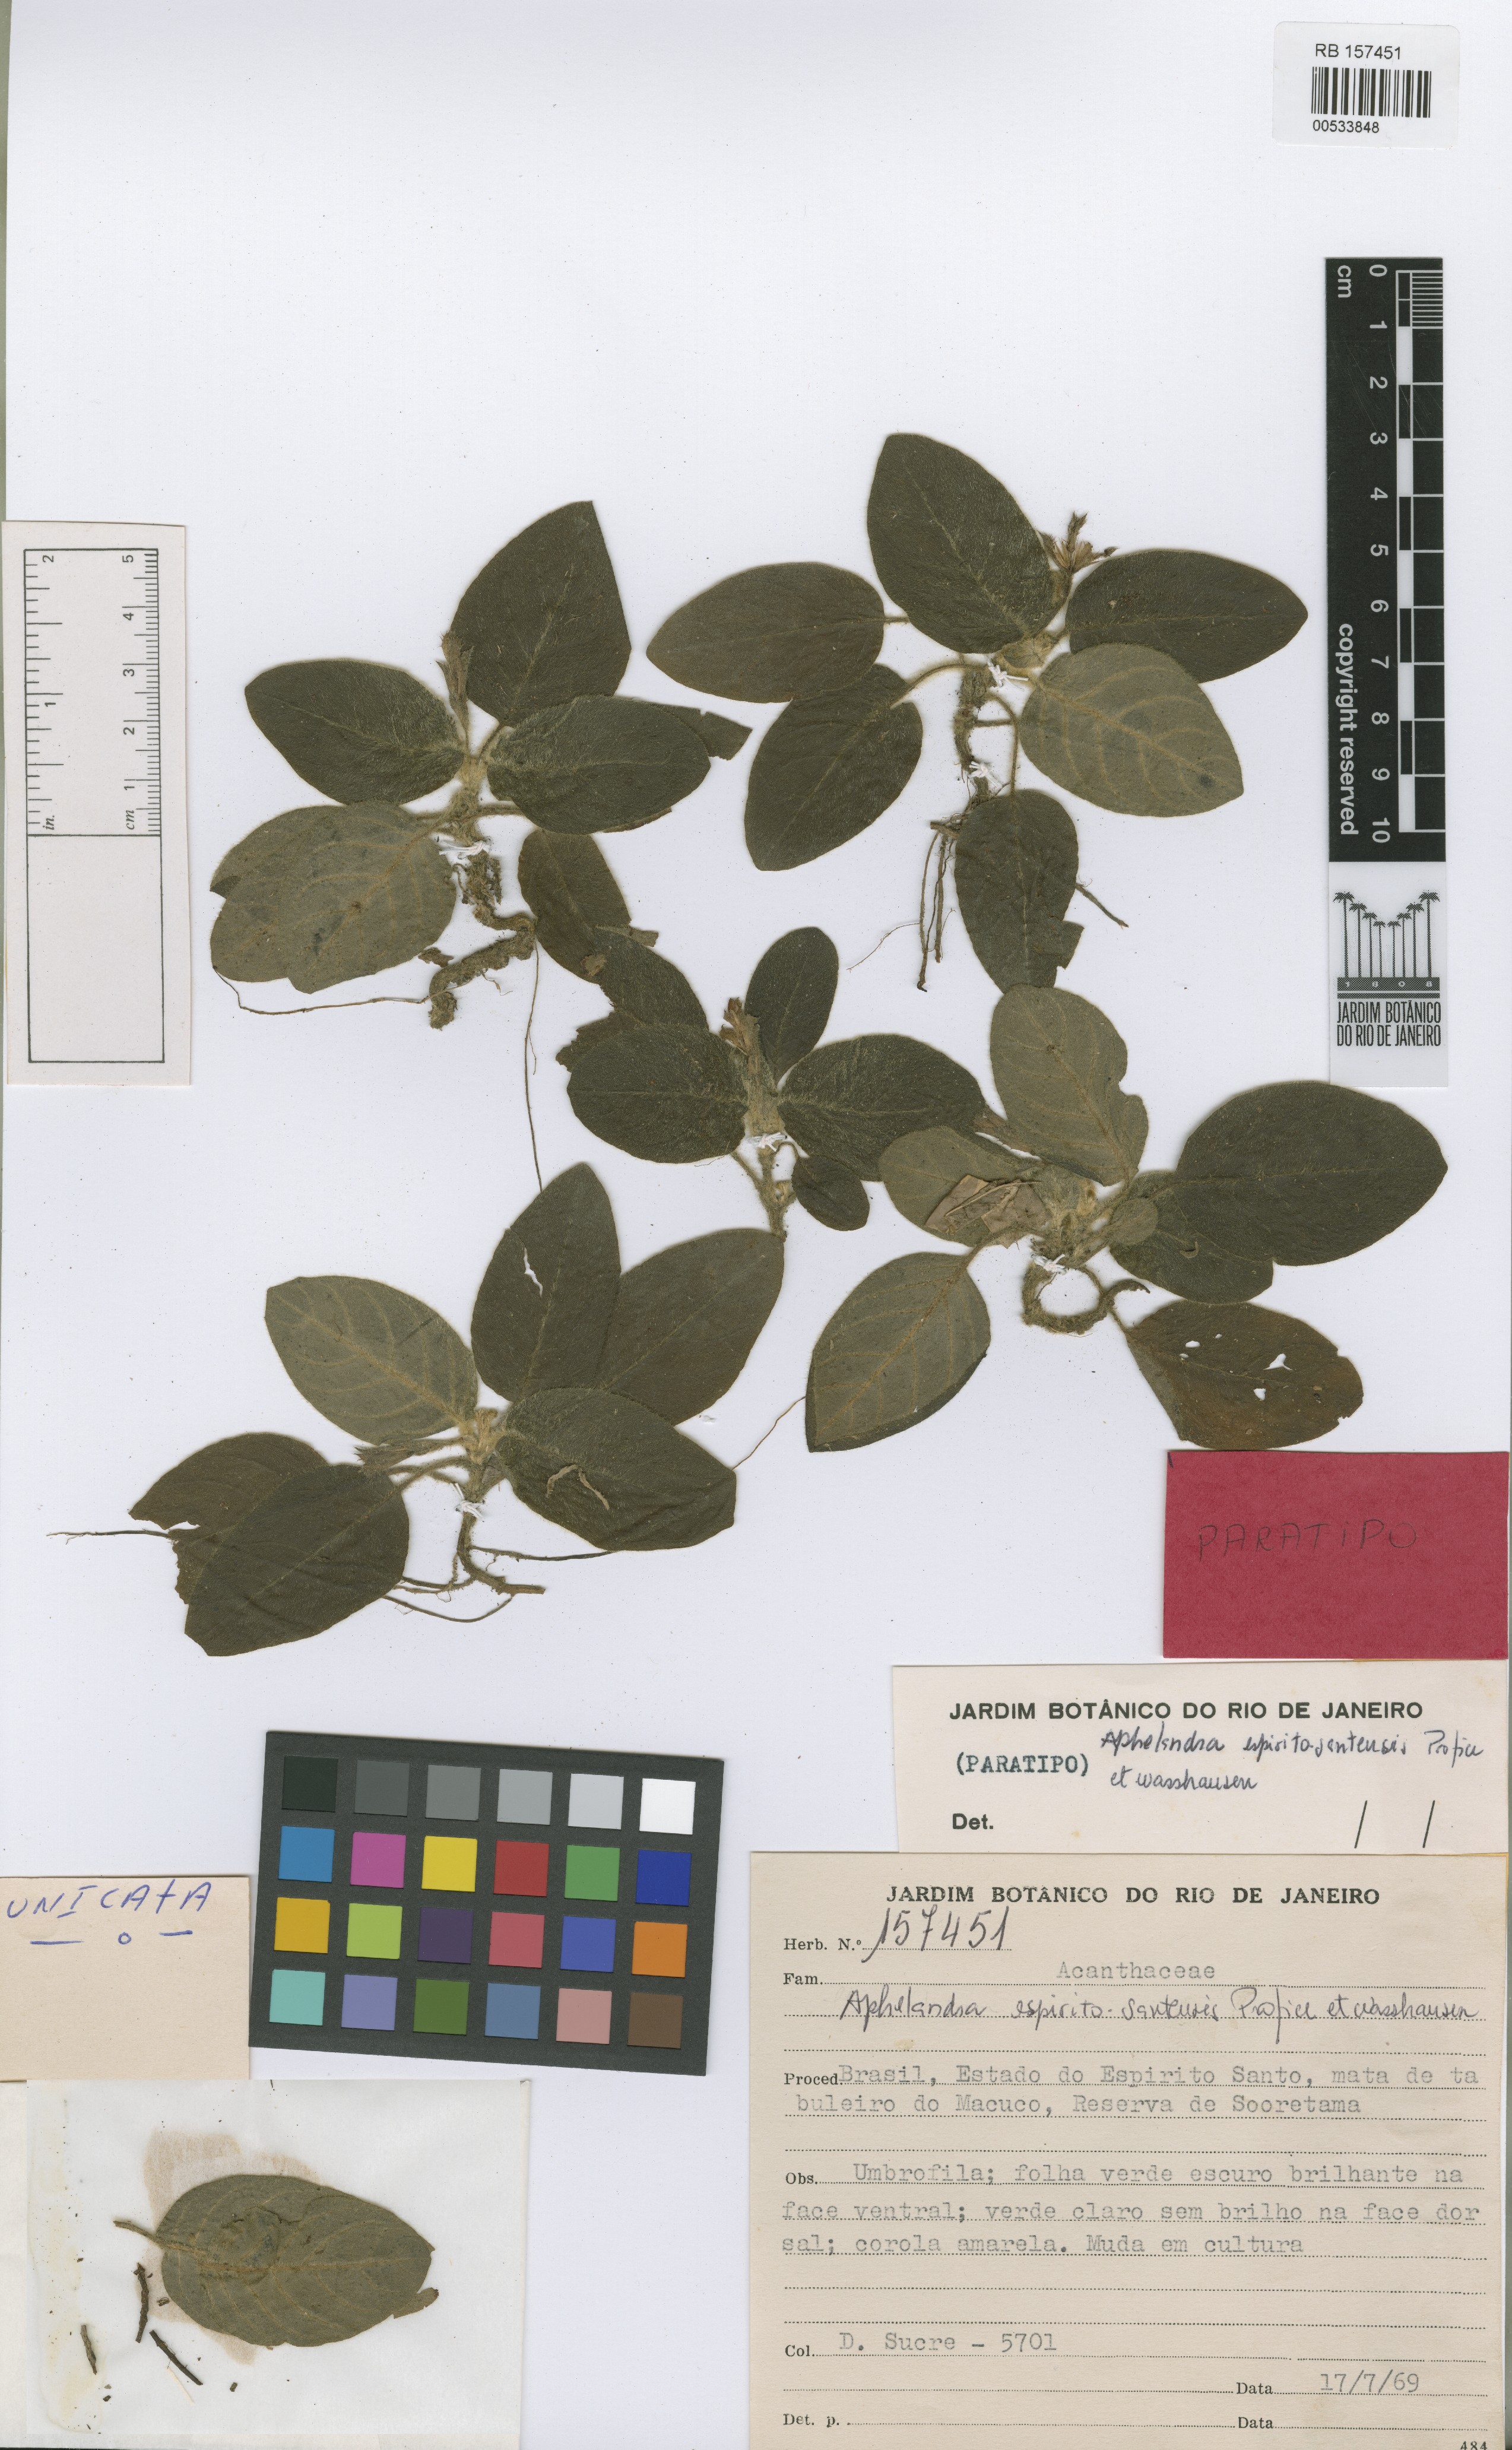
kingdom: Plantae
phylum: Tracheophyta
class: Magnoliopsida
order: Lamiales
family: Acanthaceae
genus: Aphelandra
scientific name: Aphelandra espirito-santensis
